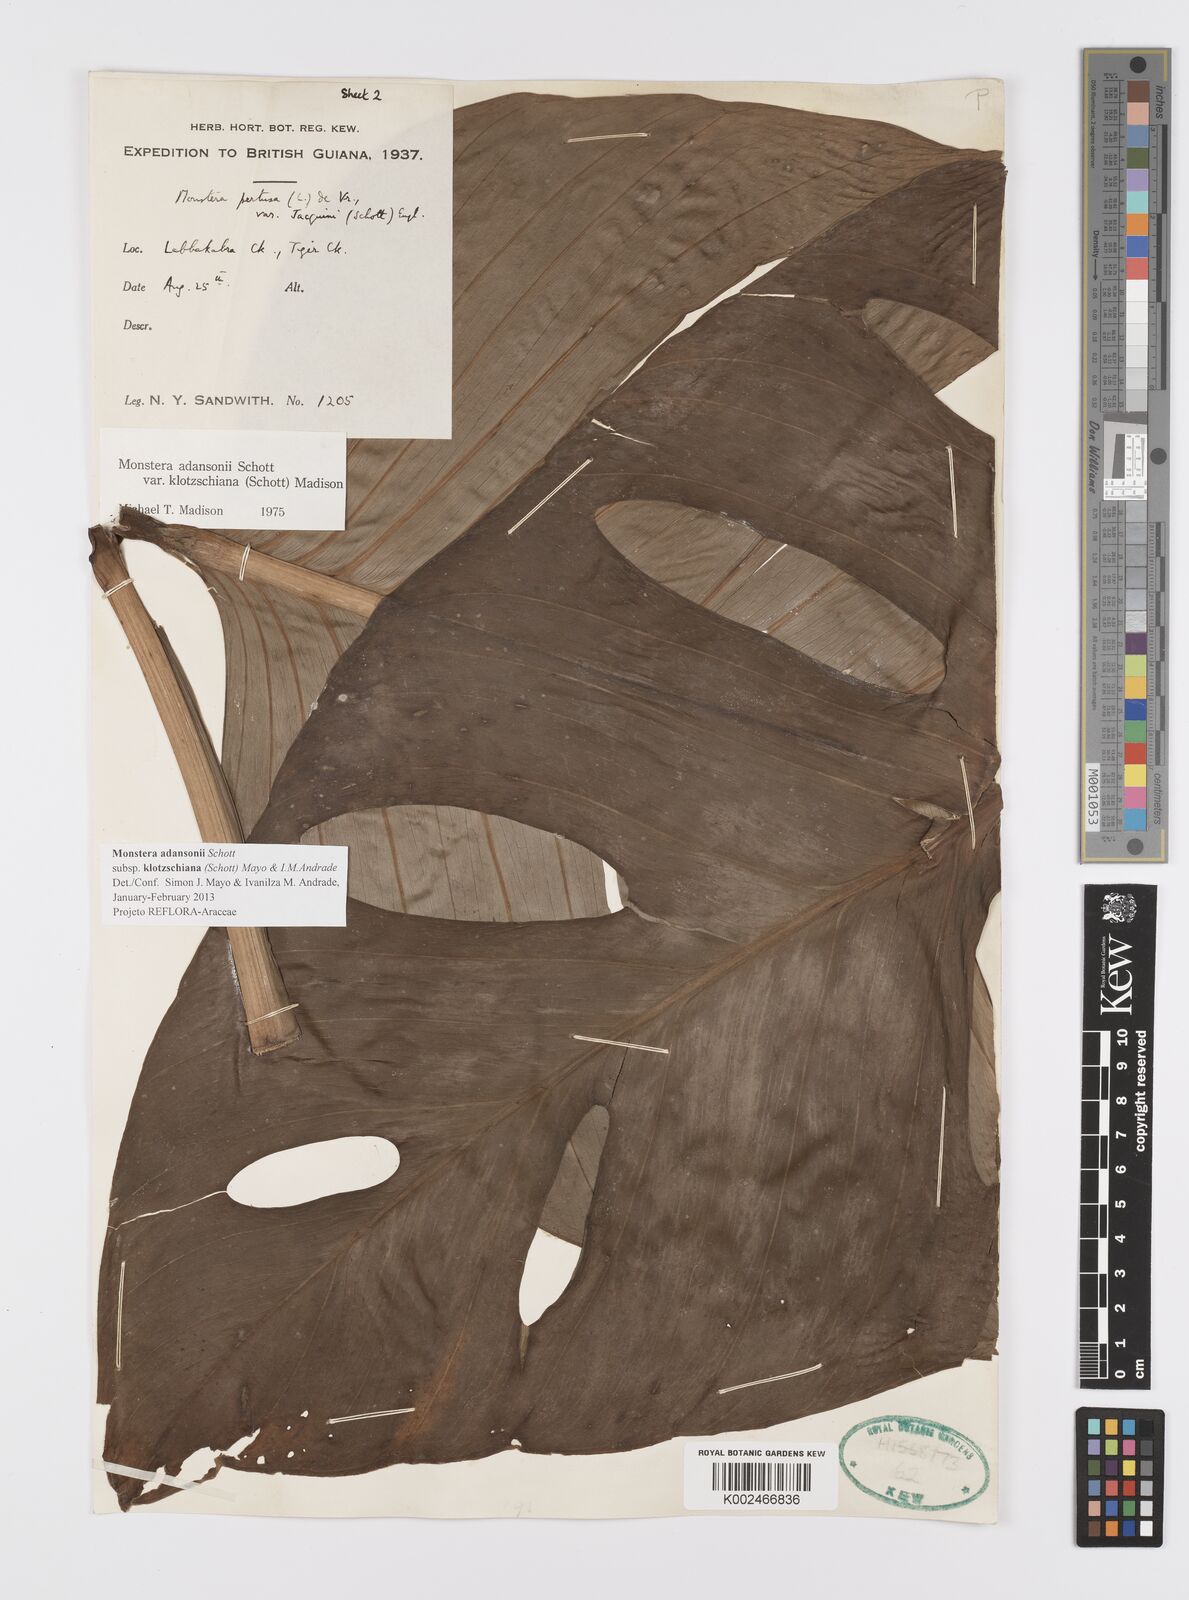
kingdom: Plantae
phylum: Tracheophyta
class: Liliopsida
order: Alismatales
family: Araceae
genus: Monstera
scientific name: Monstera adansonii
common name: Tarovine
